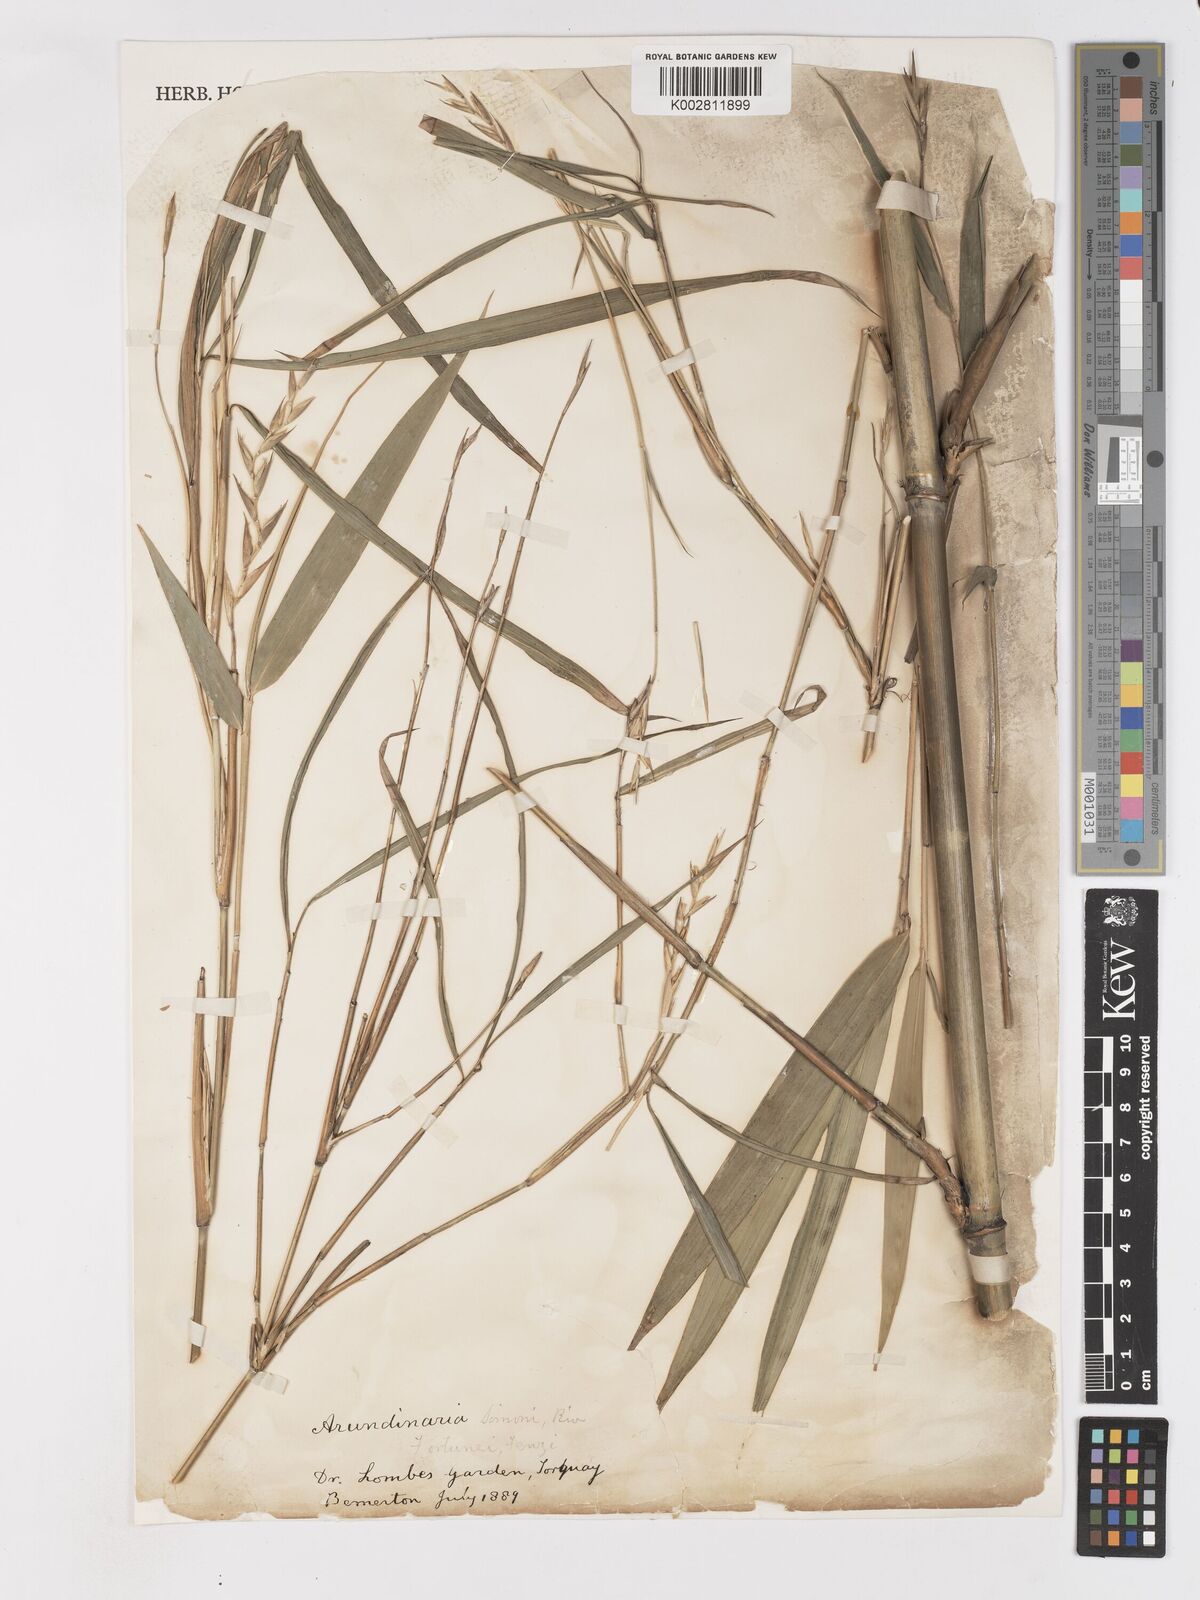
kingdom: Plantae
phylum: Tracheophyta
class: Liliopsida
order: Poales
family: Poaceae
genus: Pleioblastus
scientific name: Pleioblastus simonii
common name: Simon bamboo
